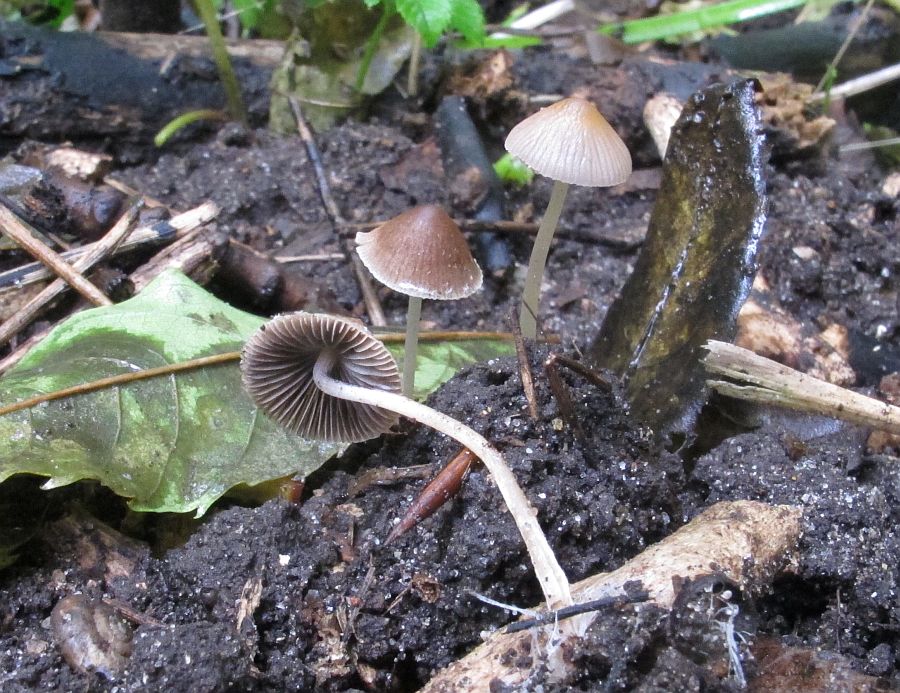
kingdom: Fungi
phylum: Basidiomycota
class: Agaricomycetes
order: Agaricales
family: Psathyrellaceae
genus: Psathyrella
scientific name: Psathyrella microrhiza
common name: rod-mørkhat
